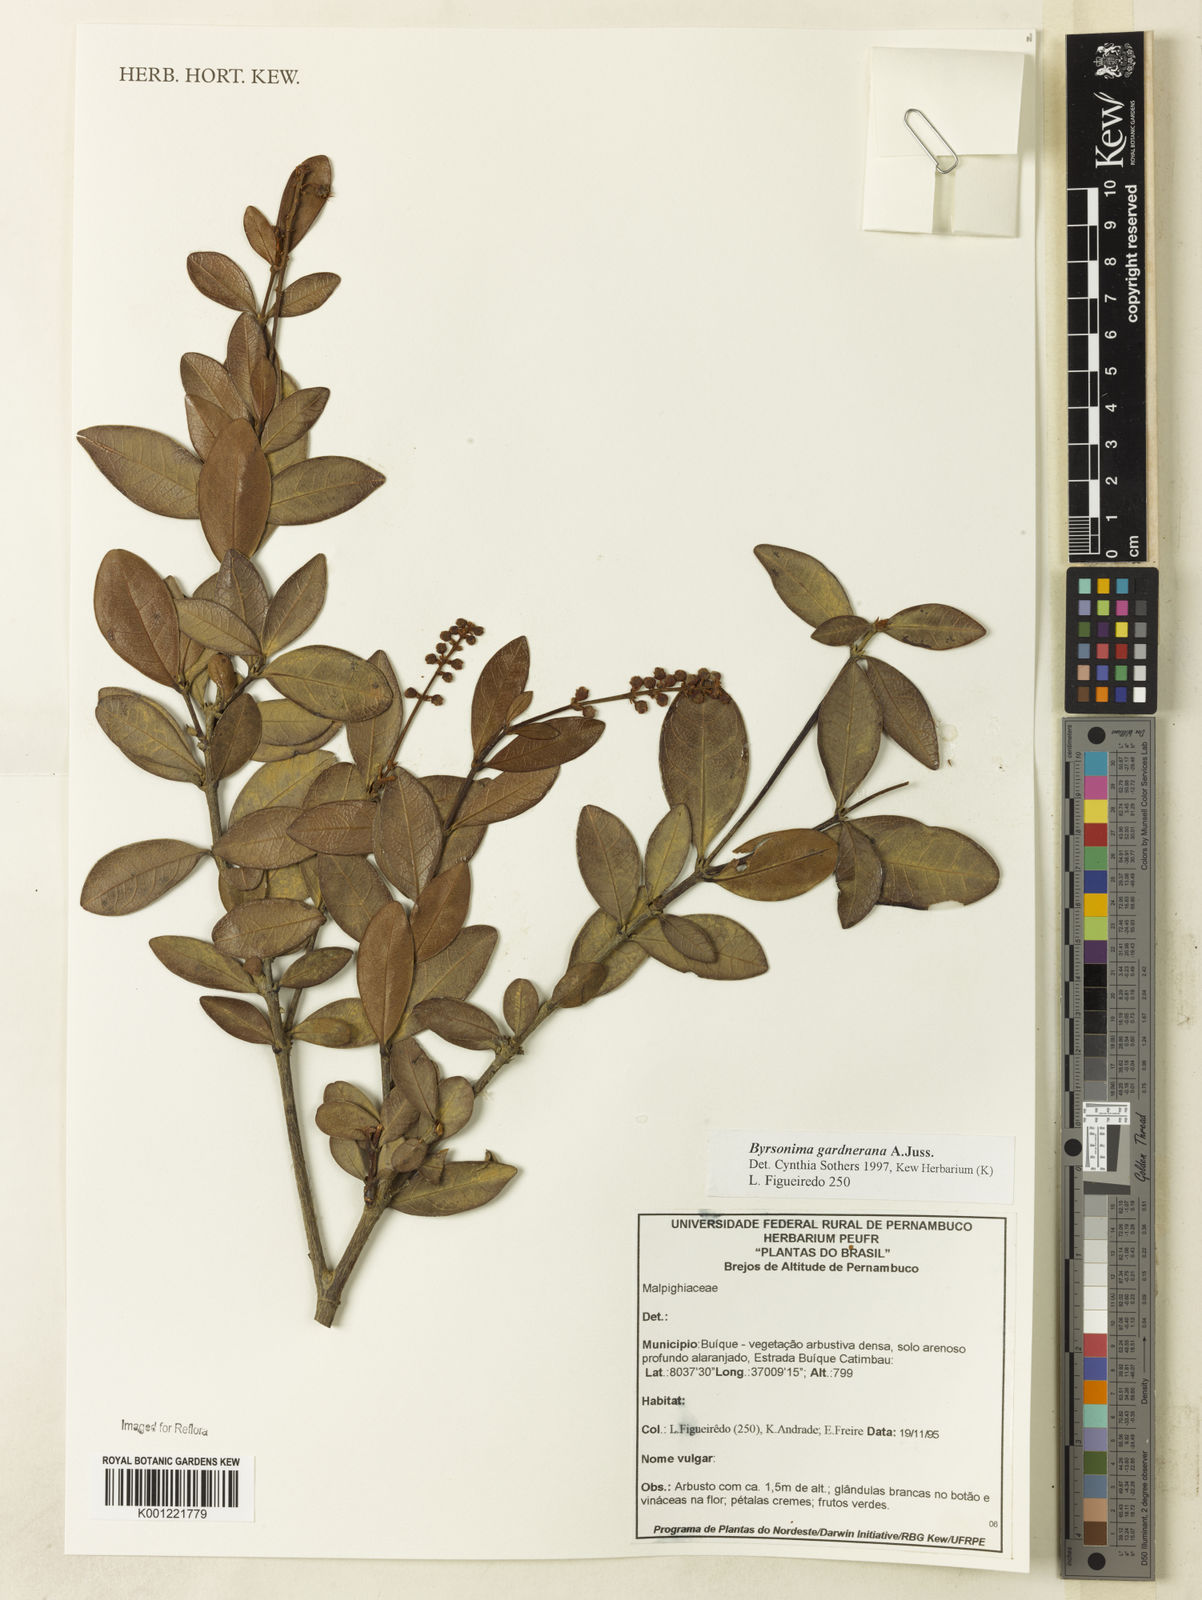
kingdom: Plantae
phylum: Tracheophyta
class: Magnoliopsida
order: Malpighiales
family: Malpighiaceae
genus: Byrsonima
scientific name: Byrsonima gardneriana
